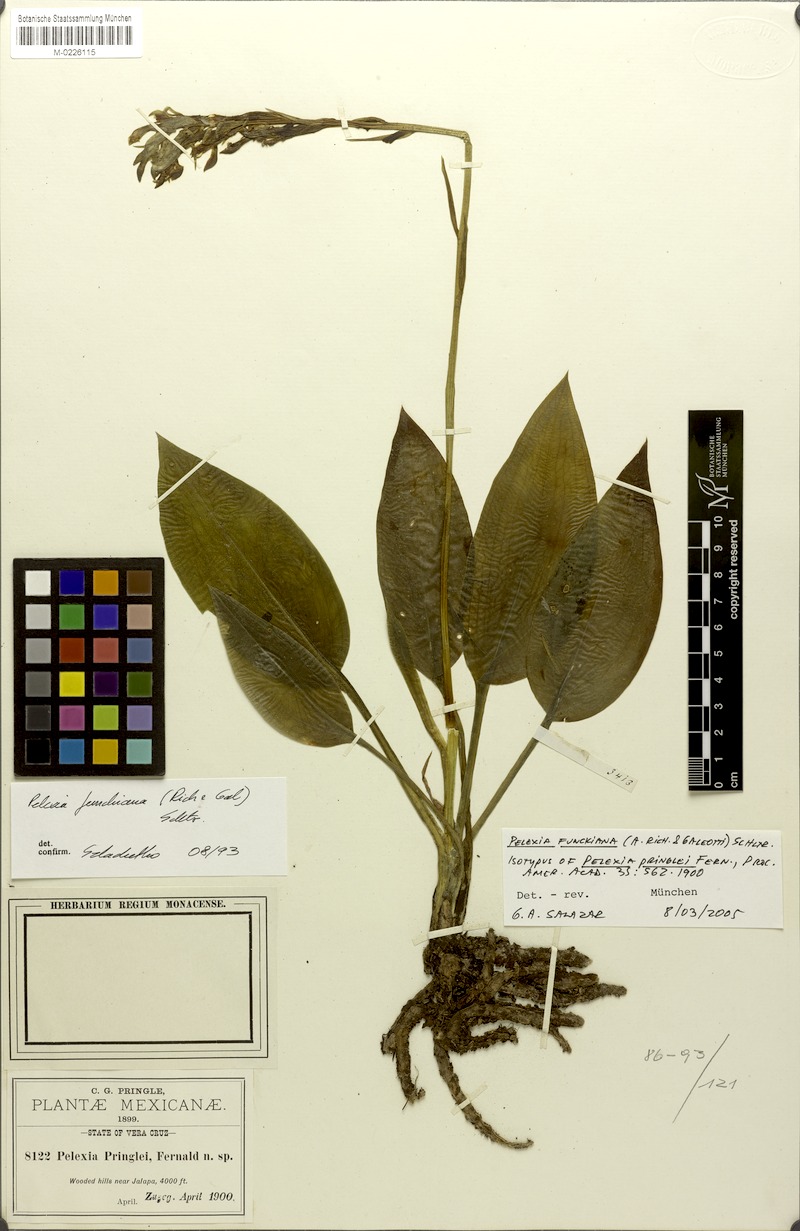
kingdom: Plantae
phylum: Tracheophyta
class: Liliopsida
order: Asparagales
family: Orchidaceae
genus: Pelexia
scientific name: Pelexia funckiana
